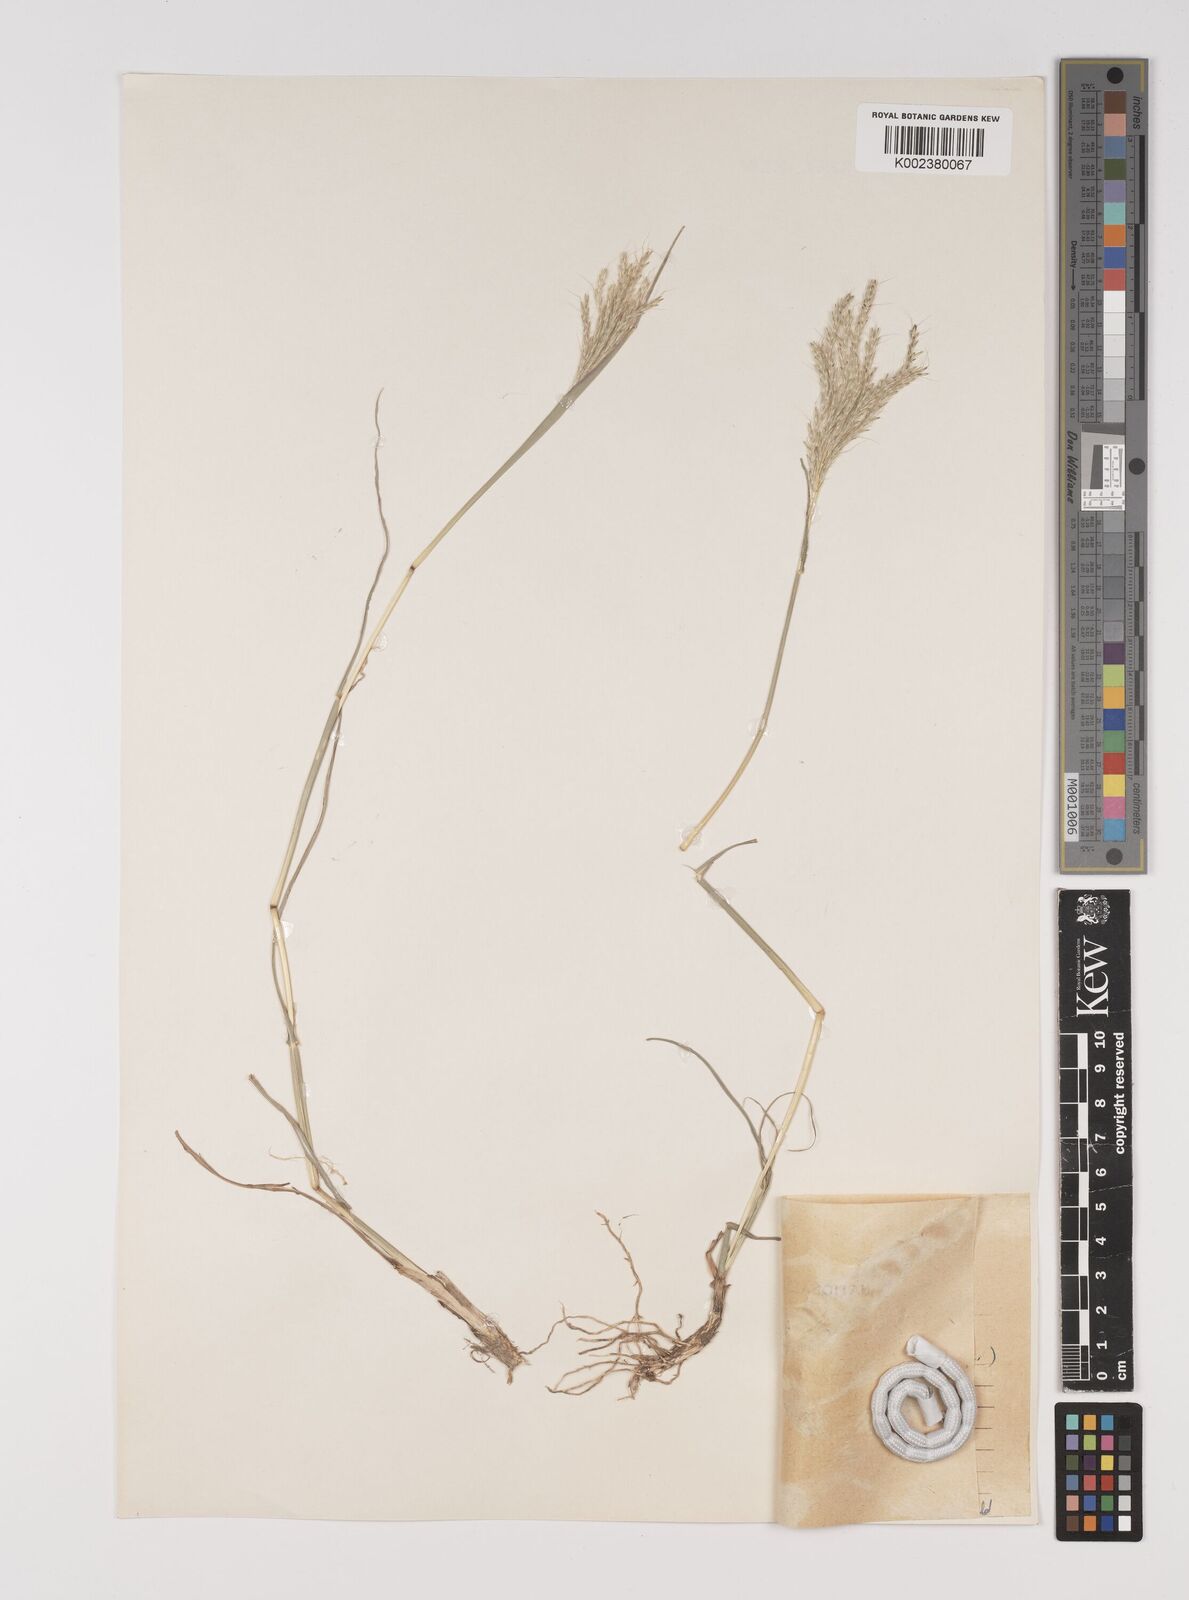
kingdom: Plantae
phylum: Tracheophyta
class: Liliopsida
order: Poales
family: Poaceae
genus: Bothriochloa
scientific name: Bothriochloa ischaemum
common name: Yellow bluestem
